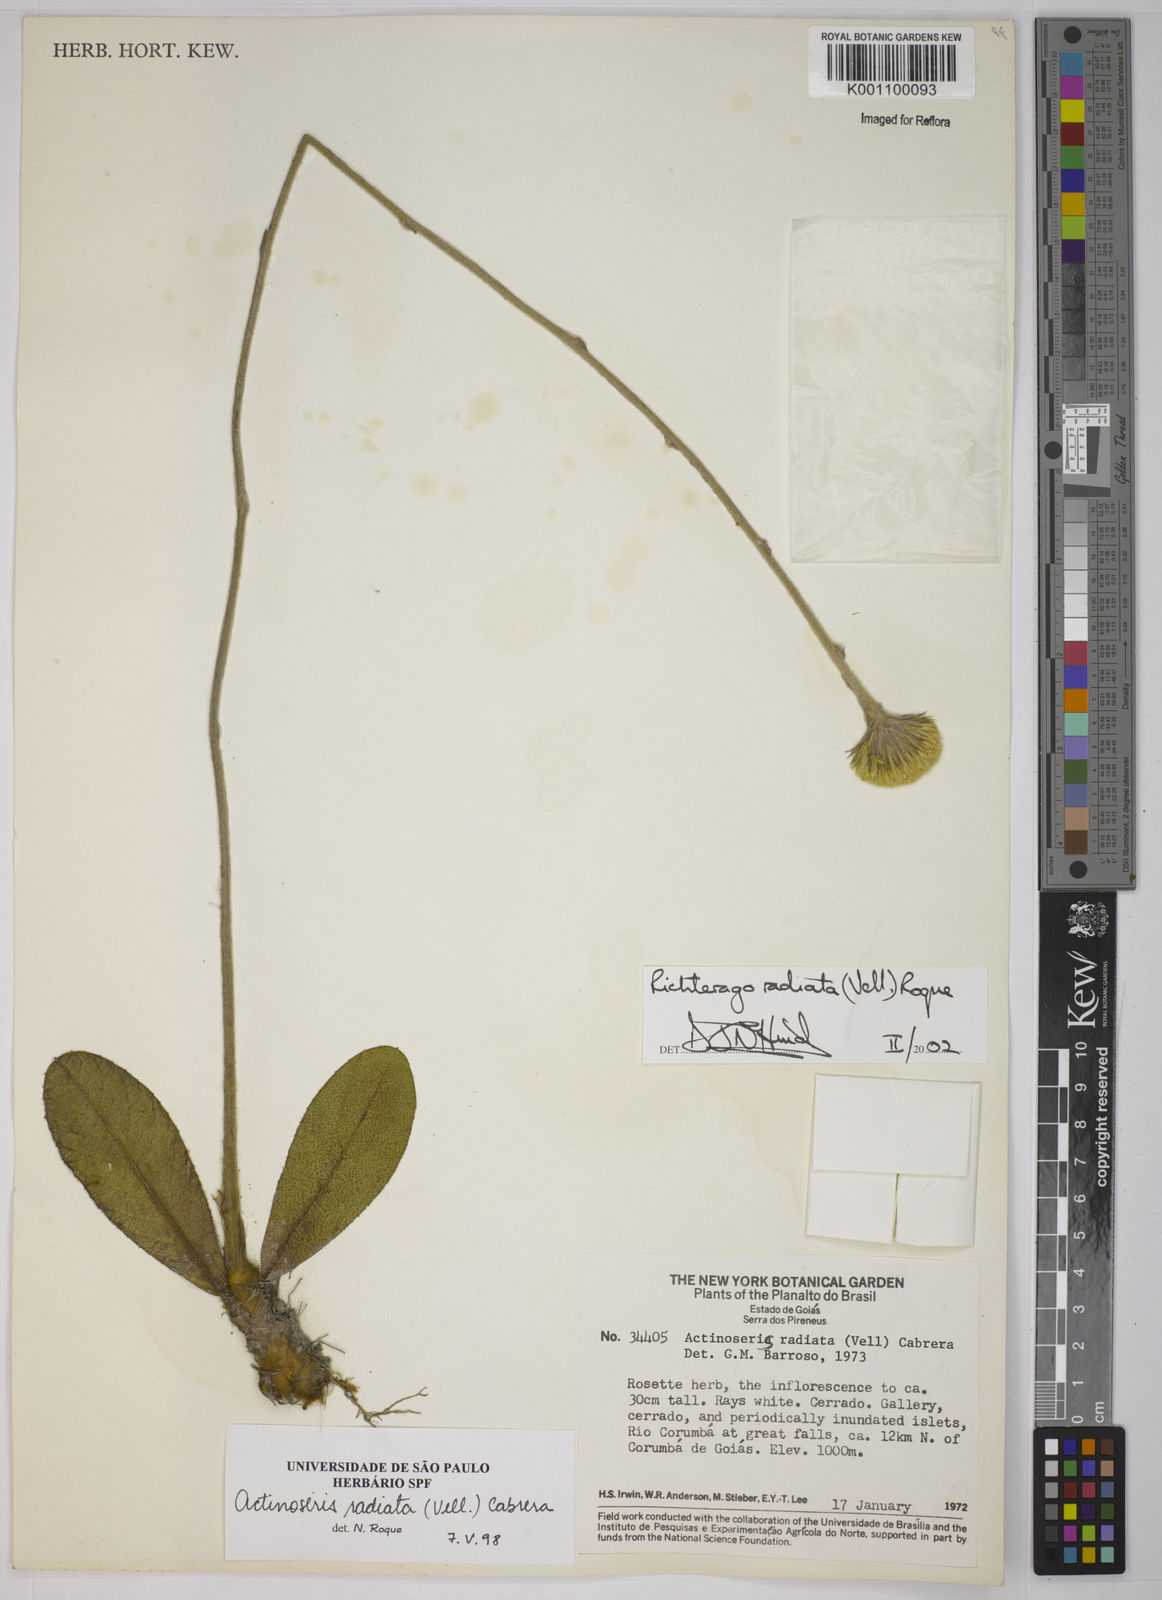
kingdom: Plantae
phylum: Tracheophyta
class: Magnoliopsida
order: Asterales
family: Asteraceae
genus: Richterago
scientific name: Richterago radiata
